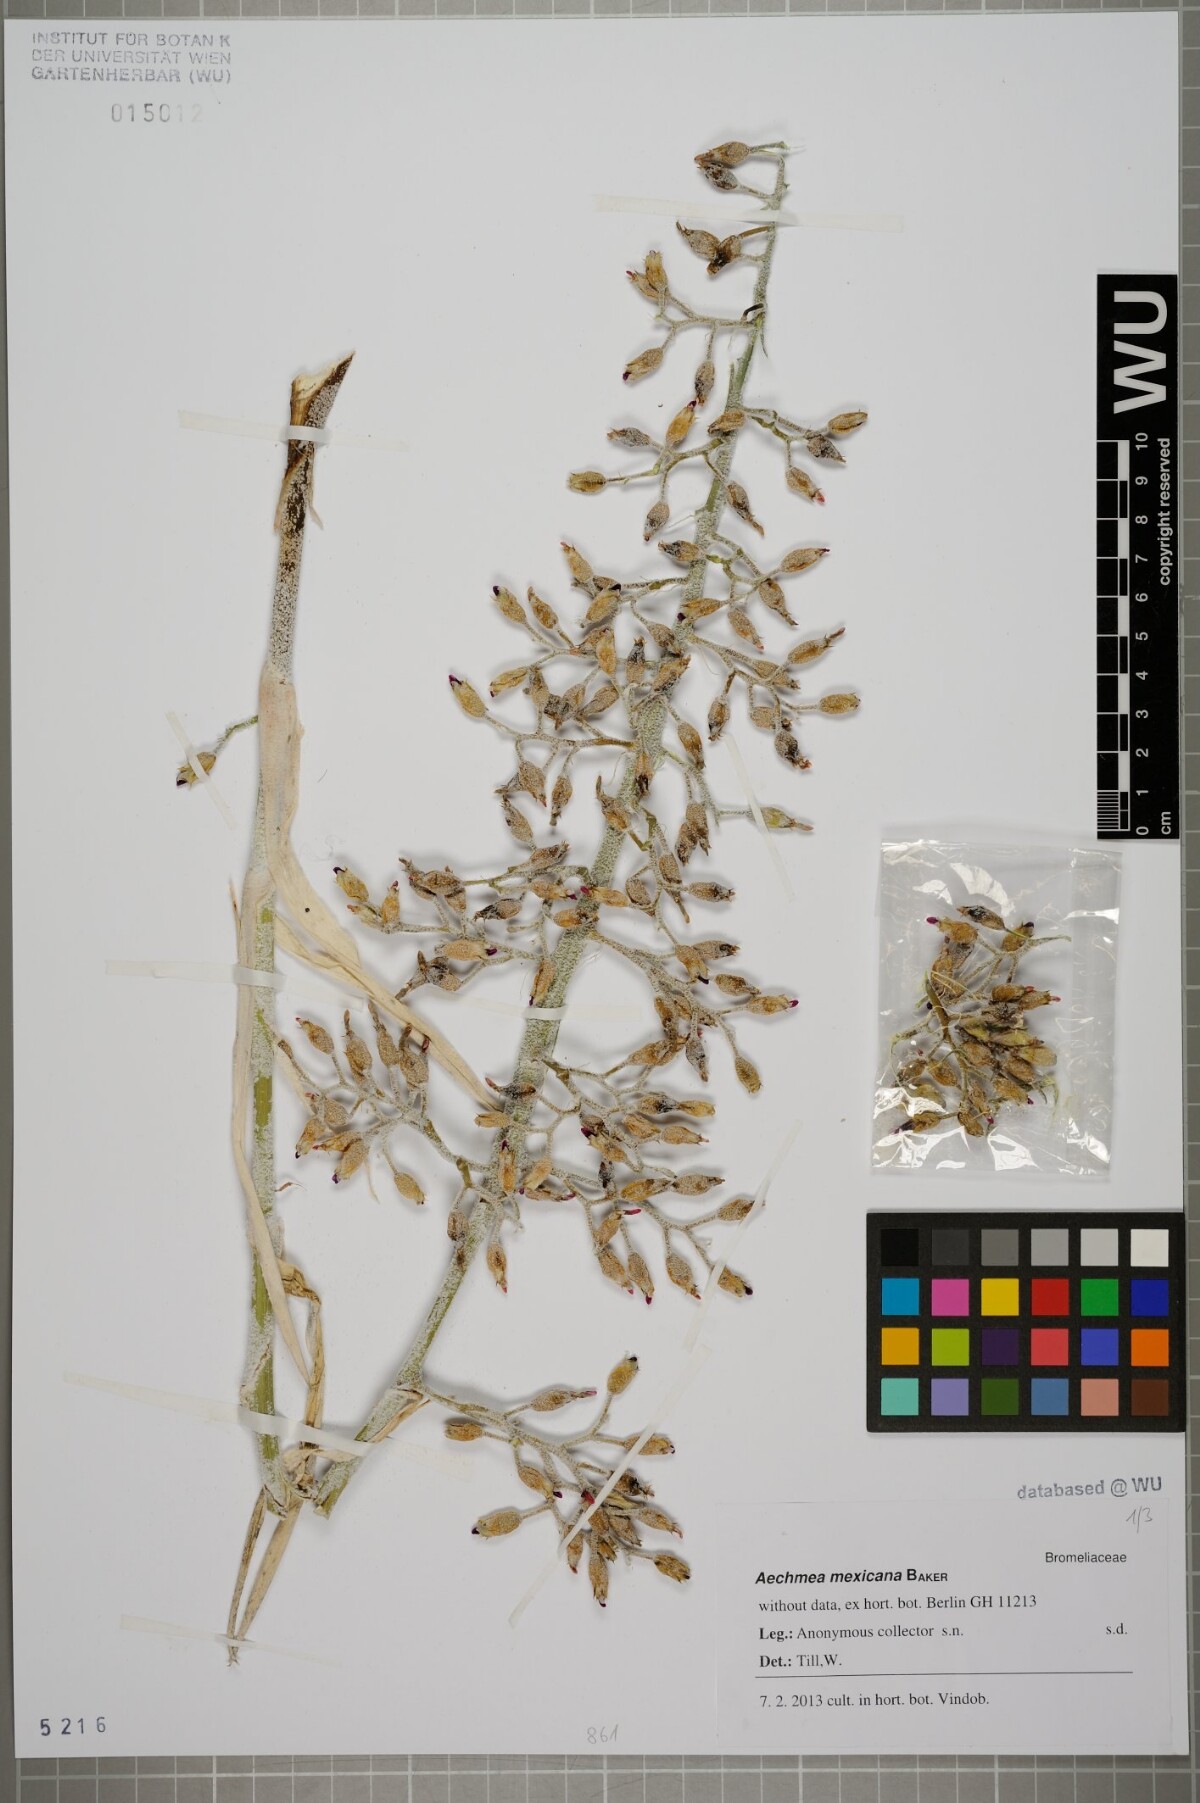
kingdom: Plantae
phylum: Tracheophyta
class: Liliopsida
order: Poales
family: Bromeliaceae
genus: Aechmea
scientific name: Aechmea mexicana
